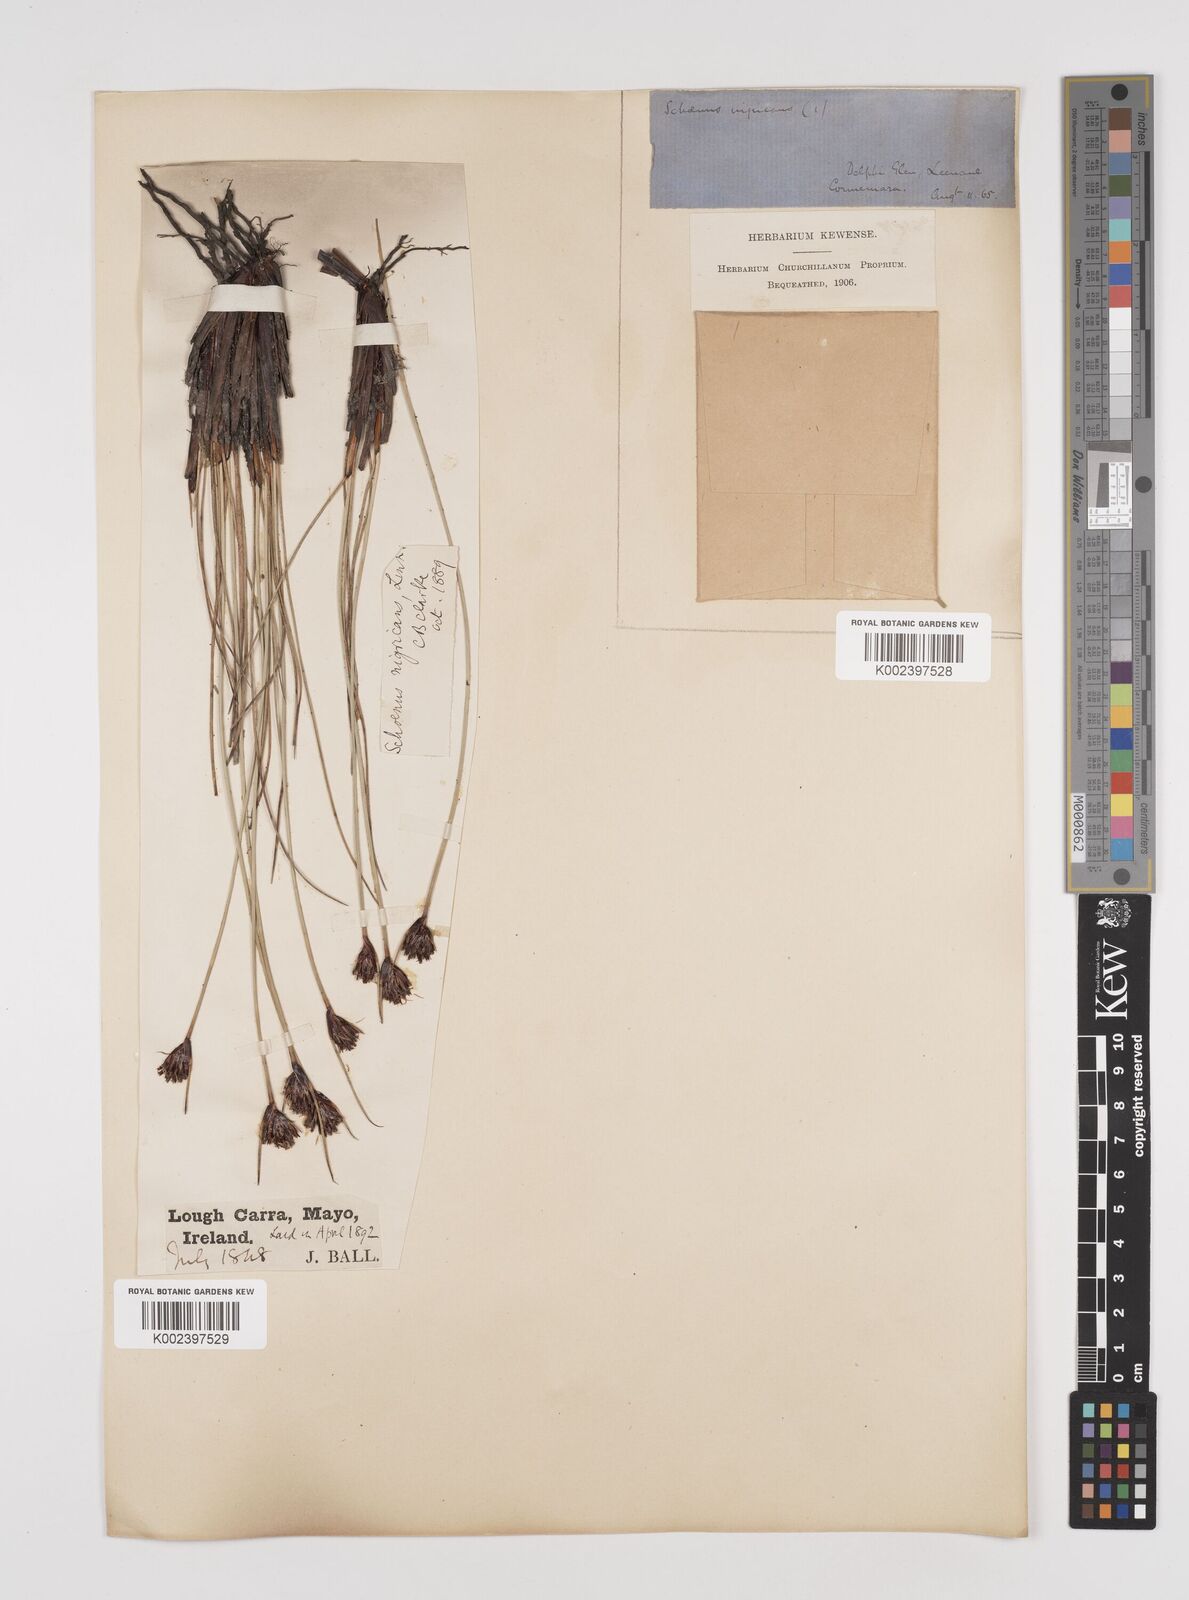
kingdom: Plantae
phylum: Tracheophyta
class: Liliopsida
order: Poales
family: Cyperaceae
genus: Schoenus
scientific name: Schoenus nigricans
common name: Black bog-rush
